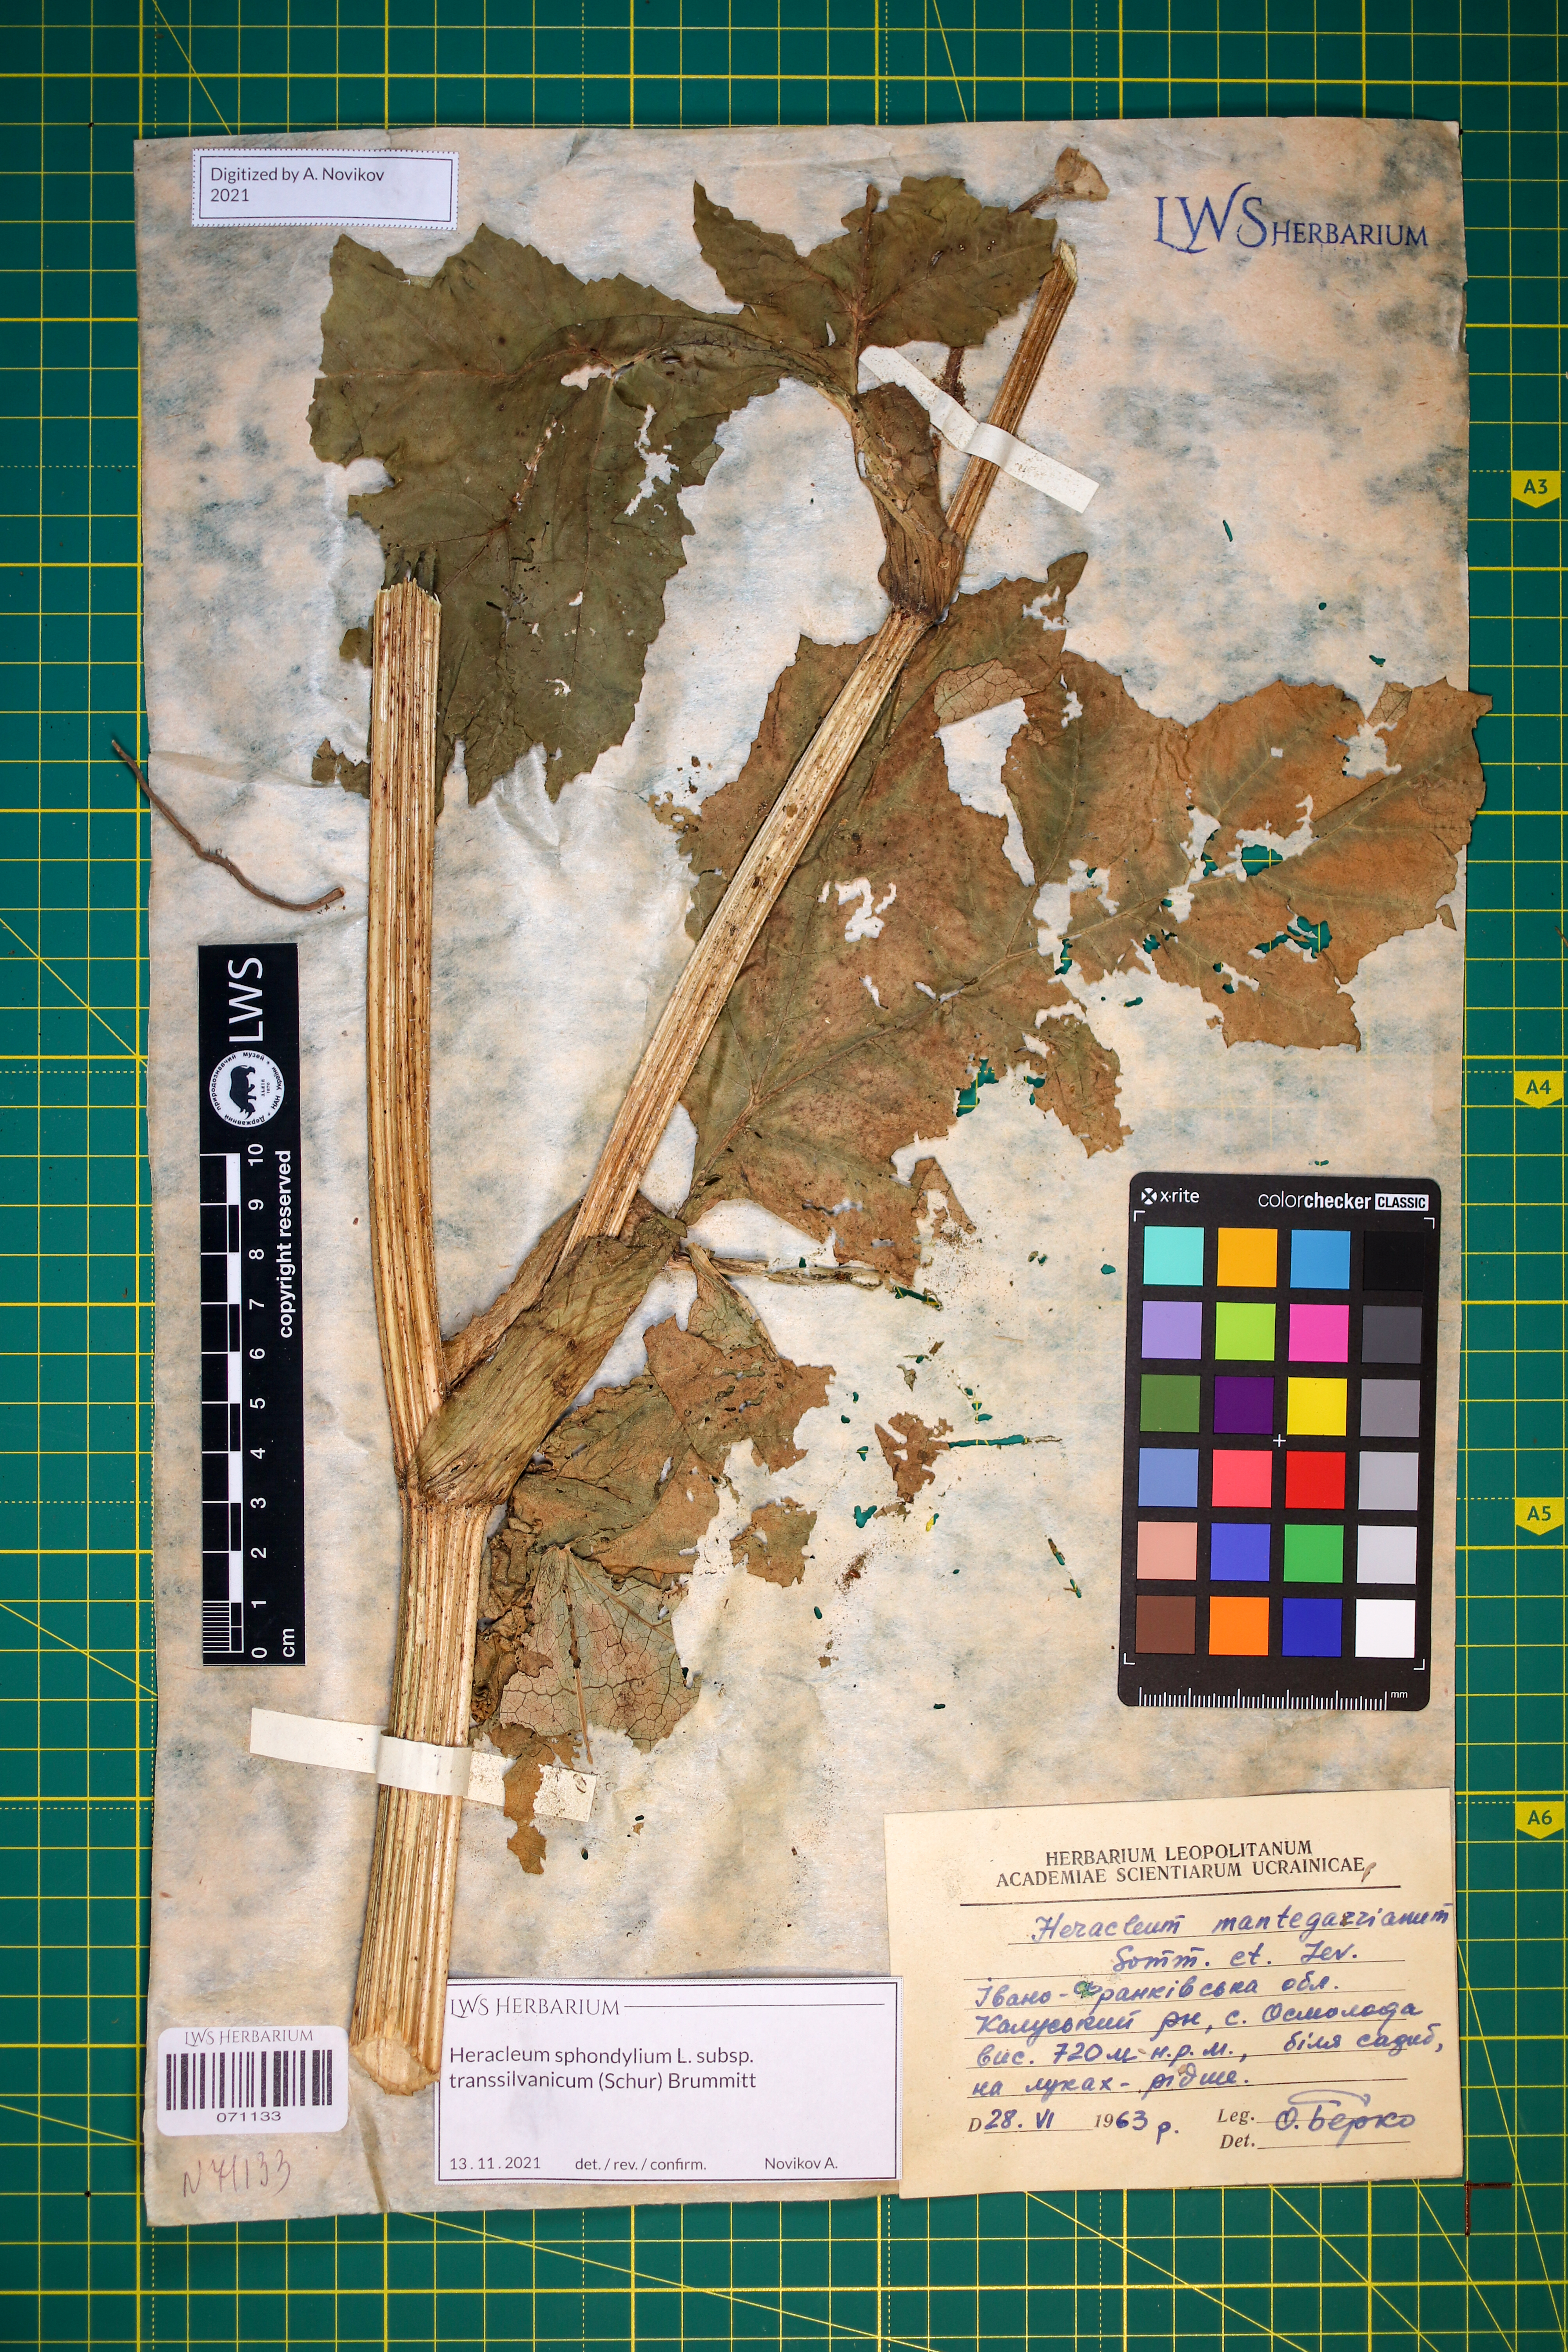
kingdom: Plantae
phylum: Tracheophyta
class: Magnoliopsida
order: Apiales
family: Apiaceae
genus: Heracleum
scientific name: Heracleum sphondylium
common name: Hogweed
